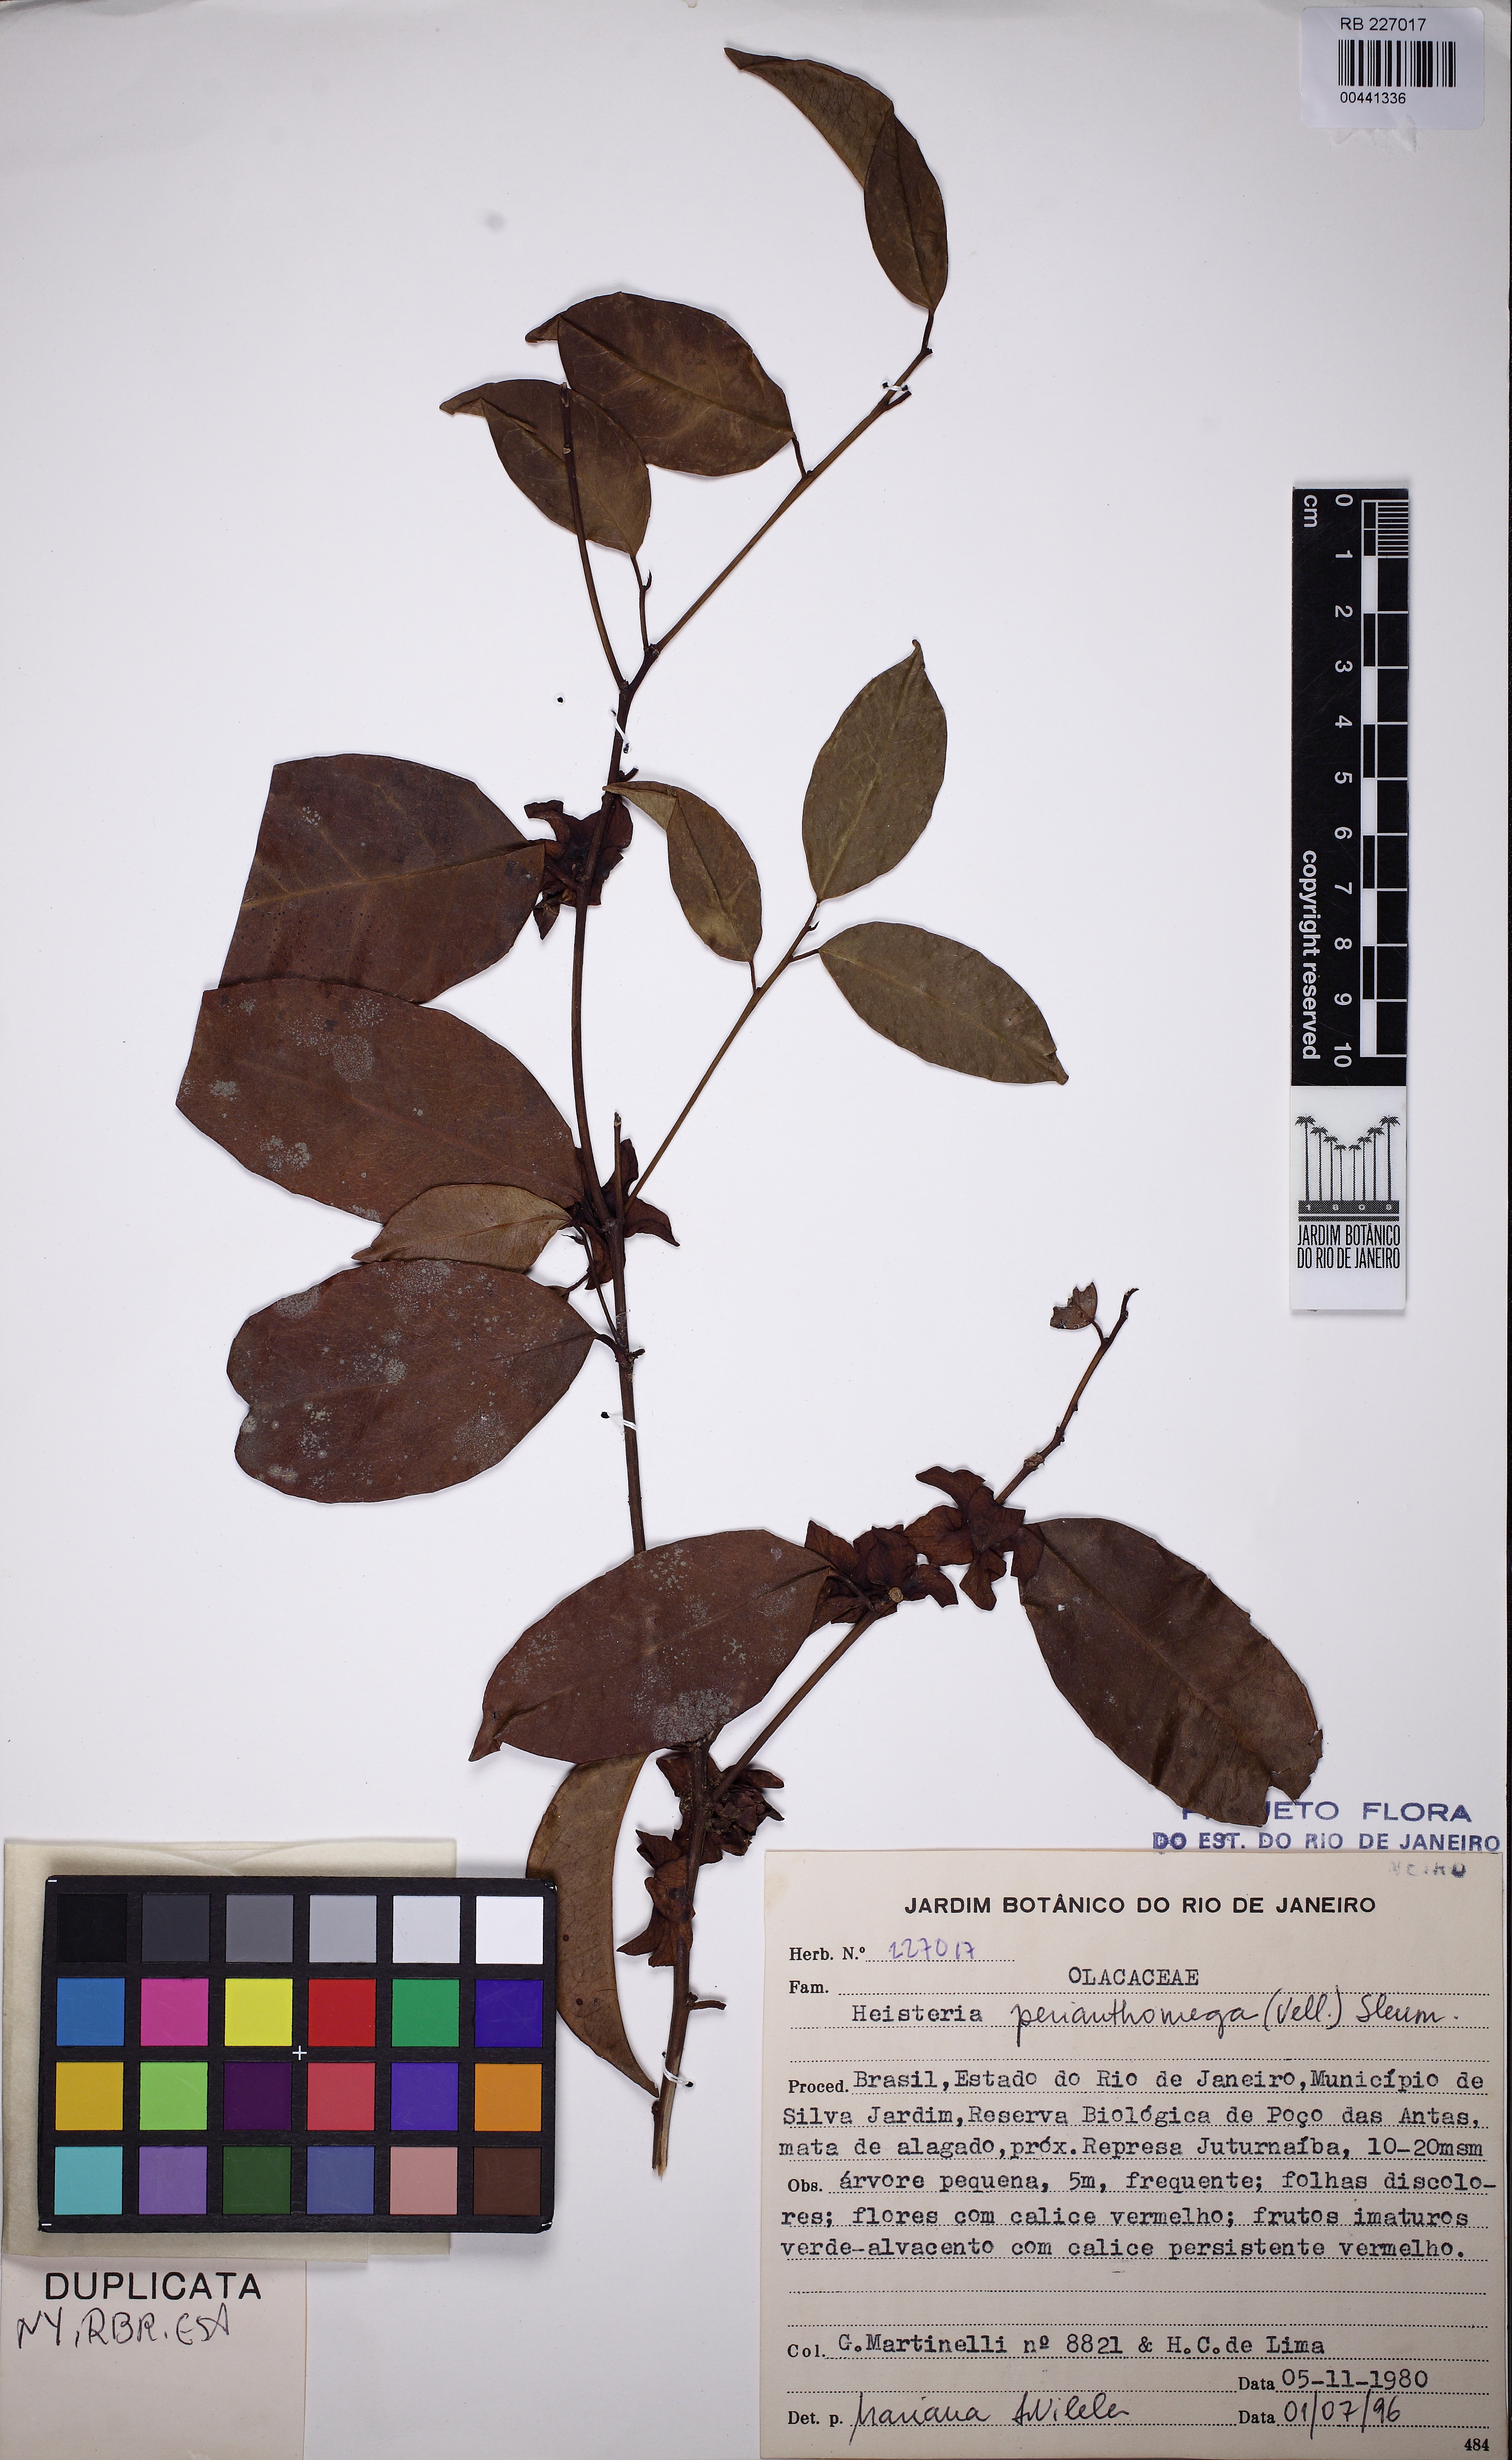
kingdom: Plantae
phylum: Tracheophyta
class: Magnoliopsida
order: Santalales
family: Erythropalaceae
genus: Heisteria
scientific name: Heisteria perianthomega
